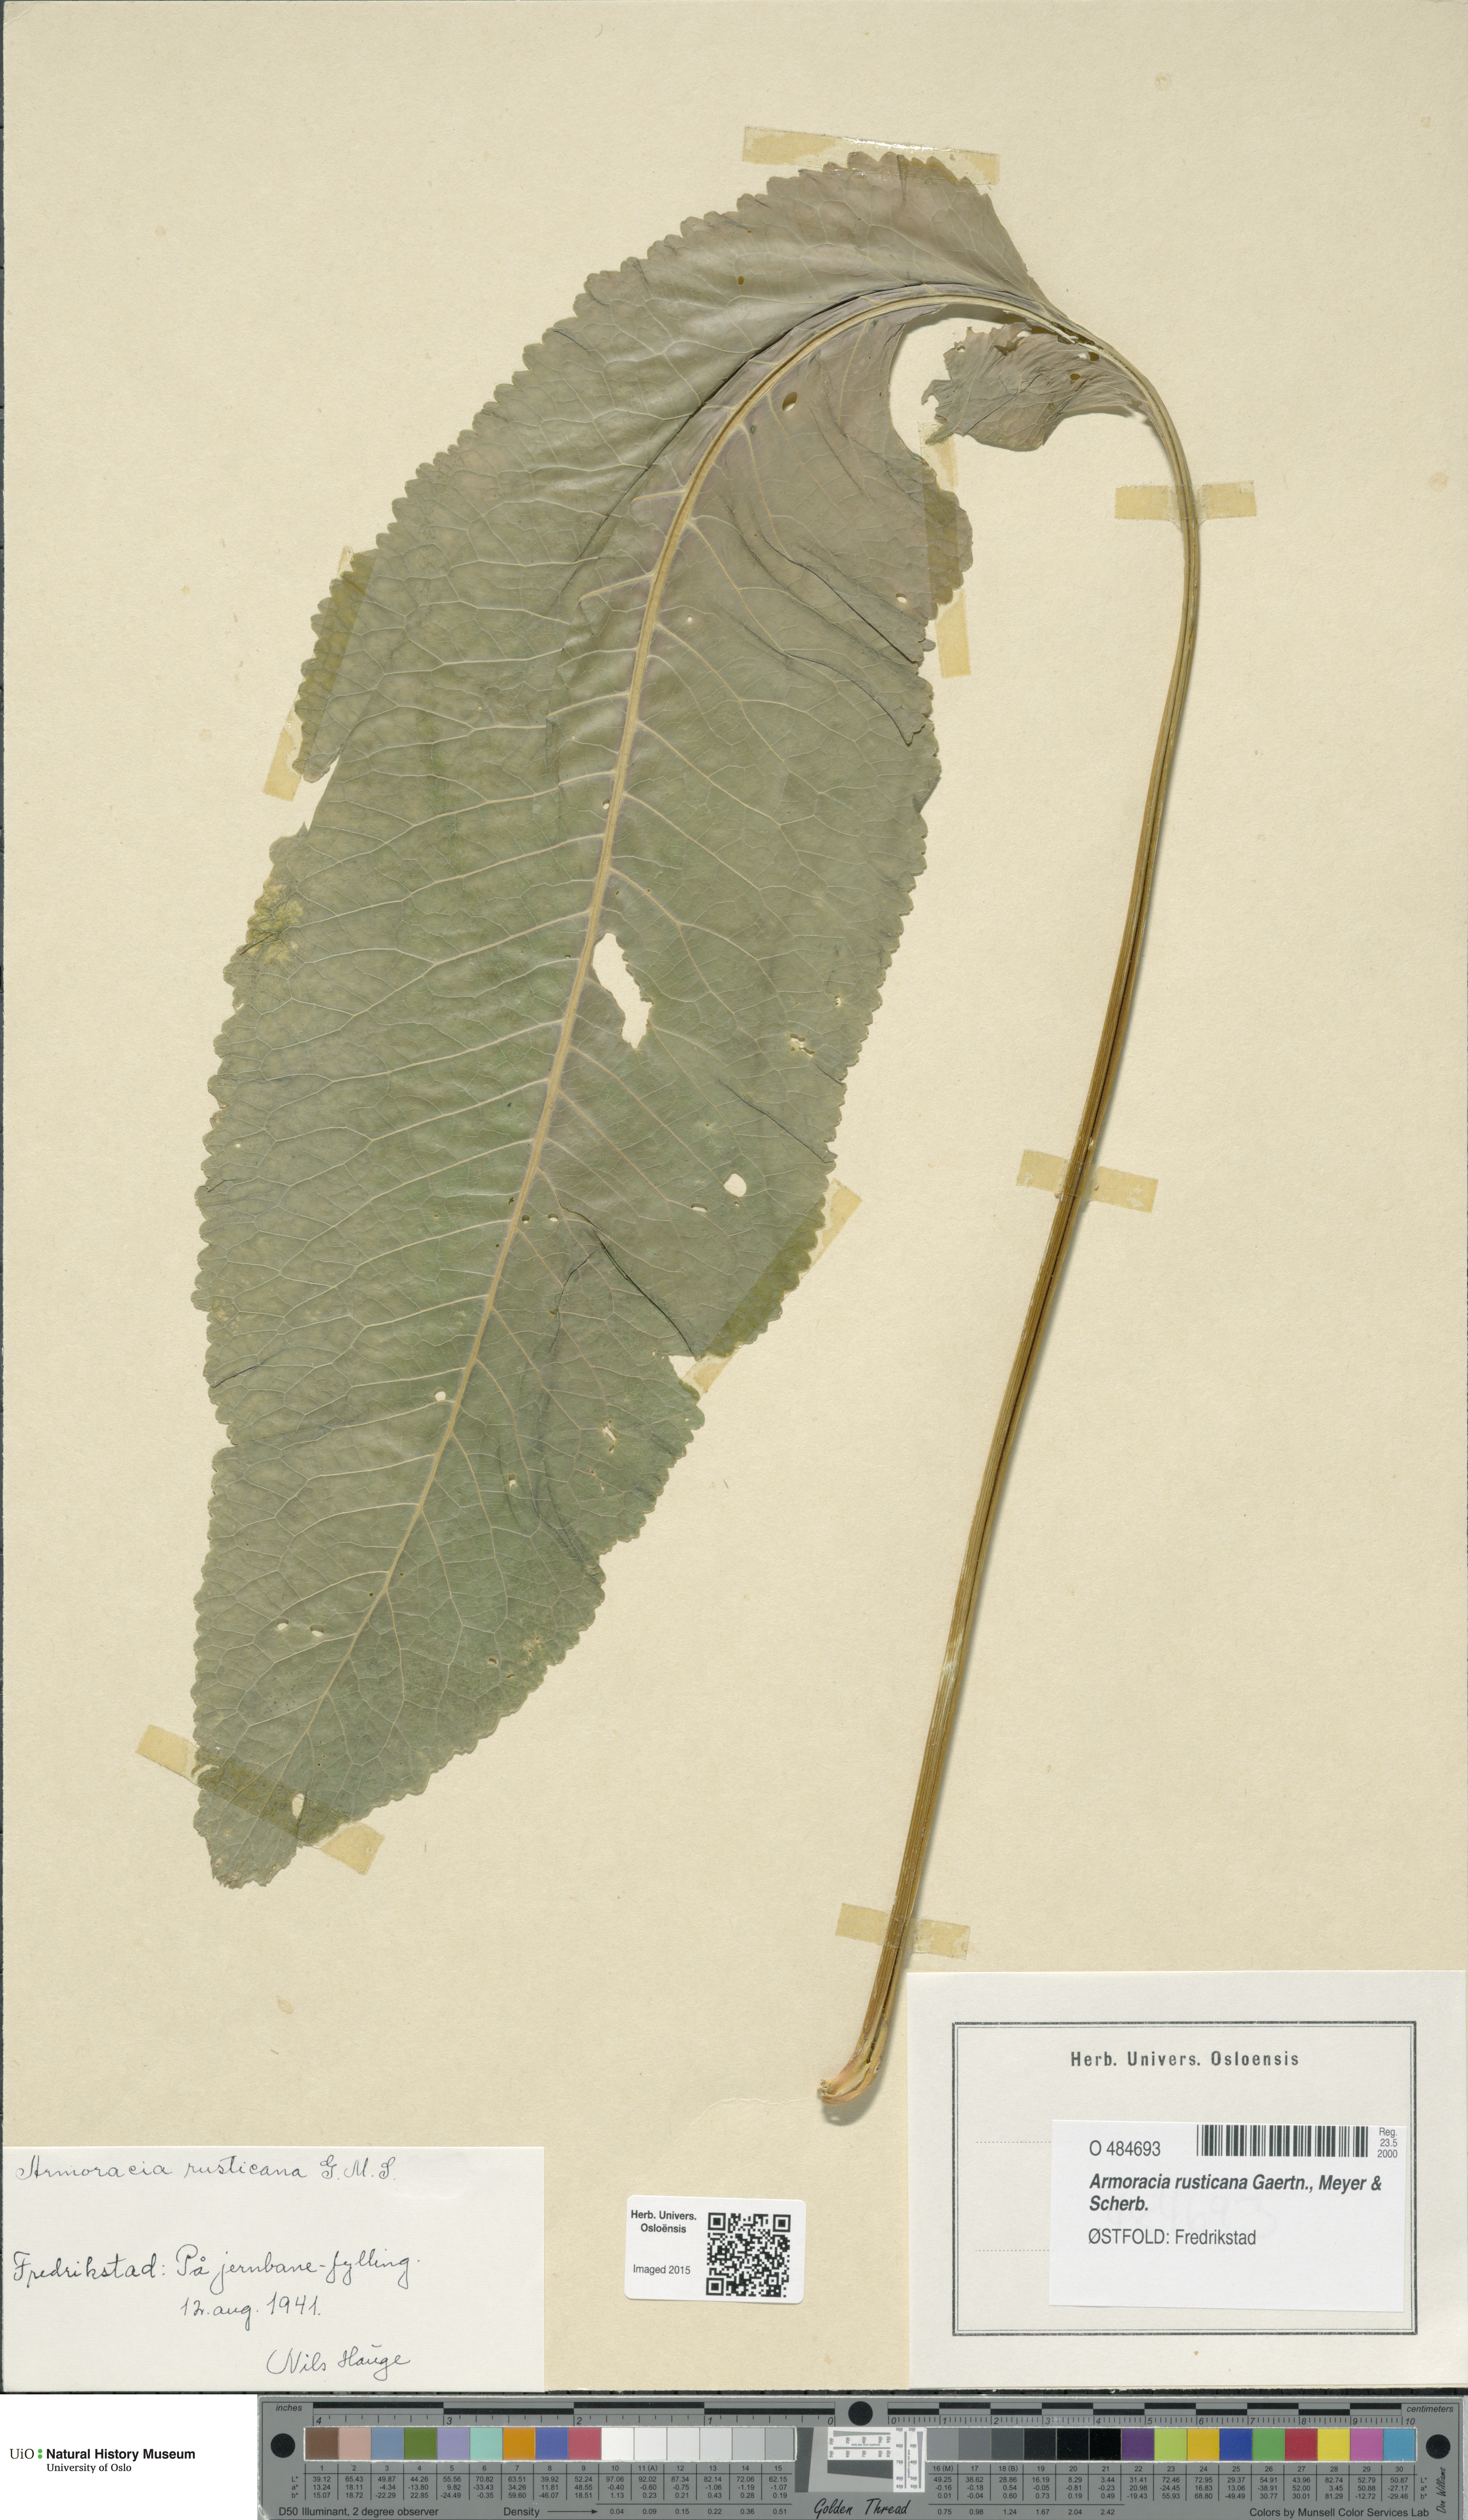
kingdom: Plantae
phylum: Tracheophyta
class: Magnoliopsida
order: Brassicales
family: Brassicaceae
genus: Armoracia
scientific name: Armoracia rusticana
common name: Horseradish
